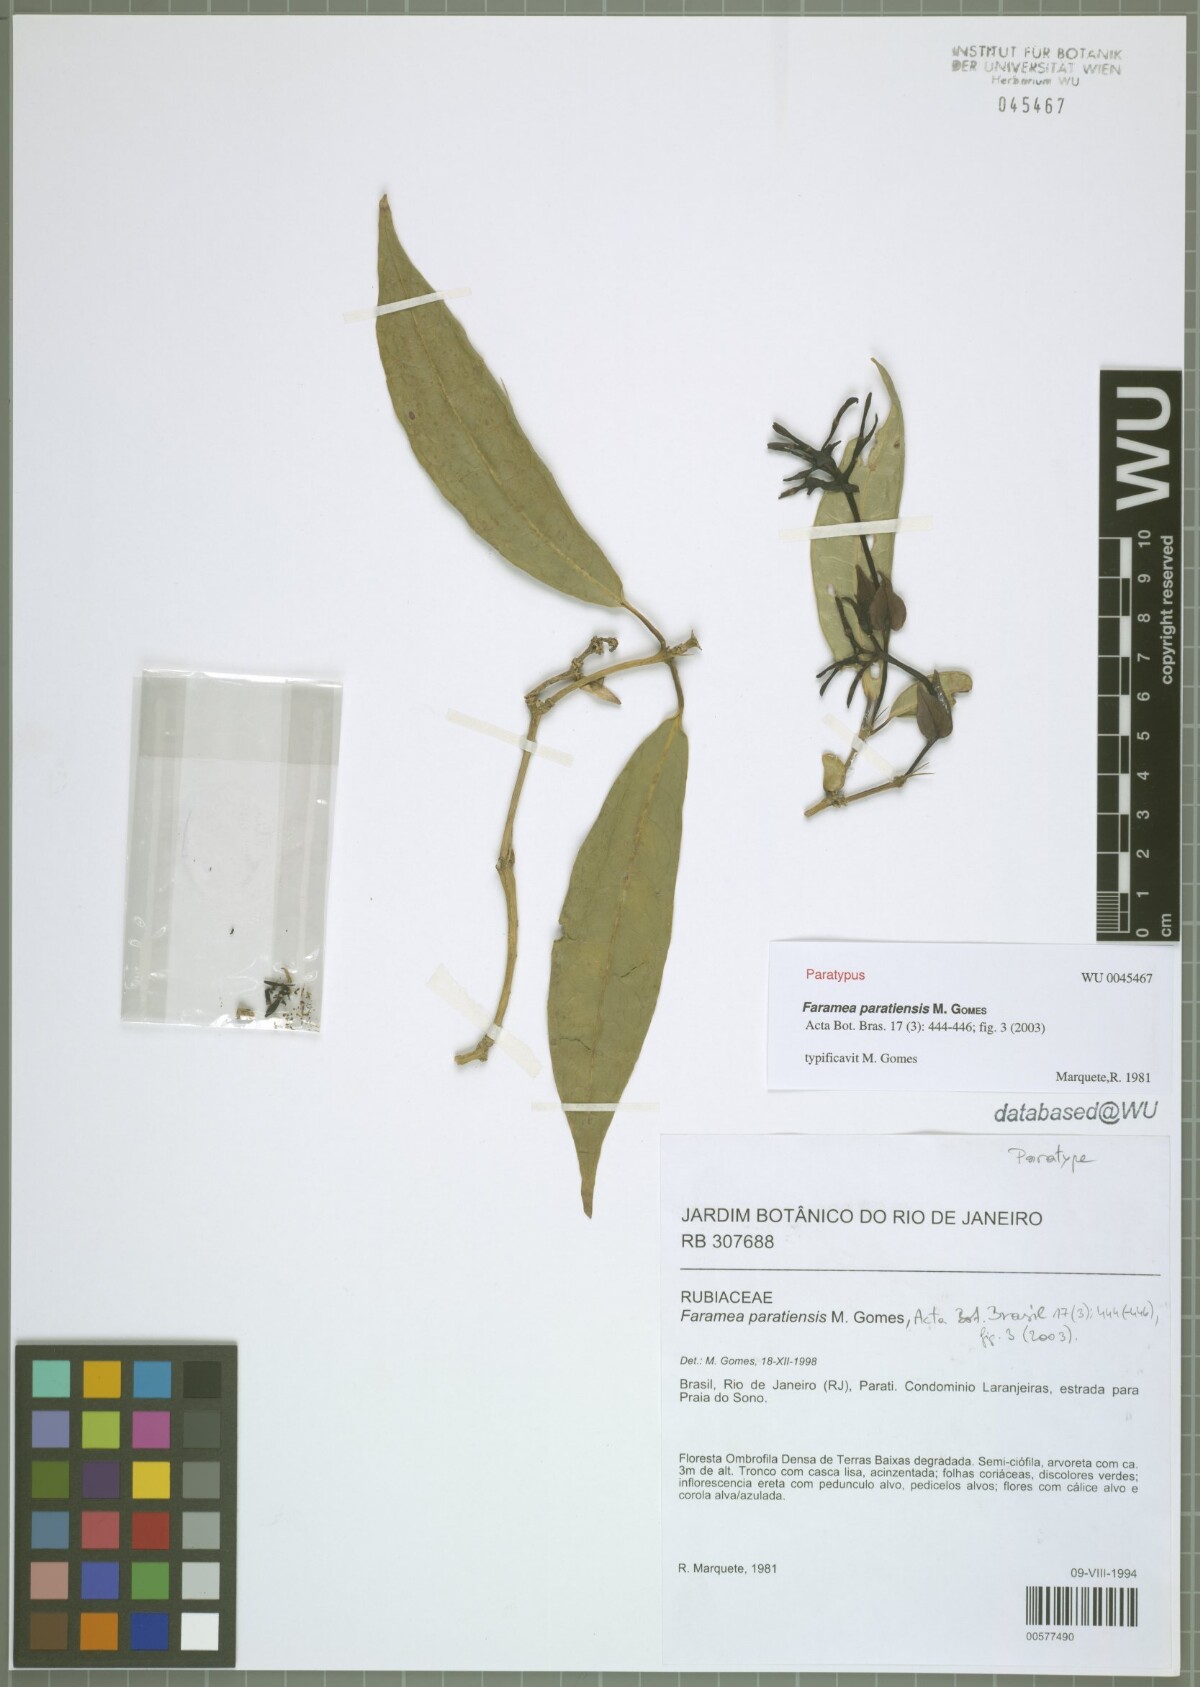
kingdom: Plantae
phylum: Tracheophyta
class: Magnoliopsida
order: Gentianales
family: Rubiaceae
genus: Faramea
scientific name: Faramea paratiensis
